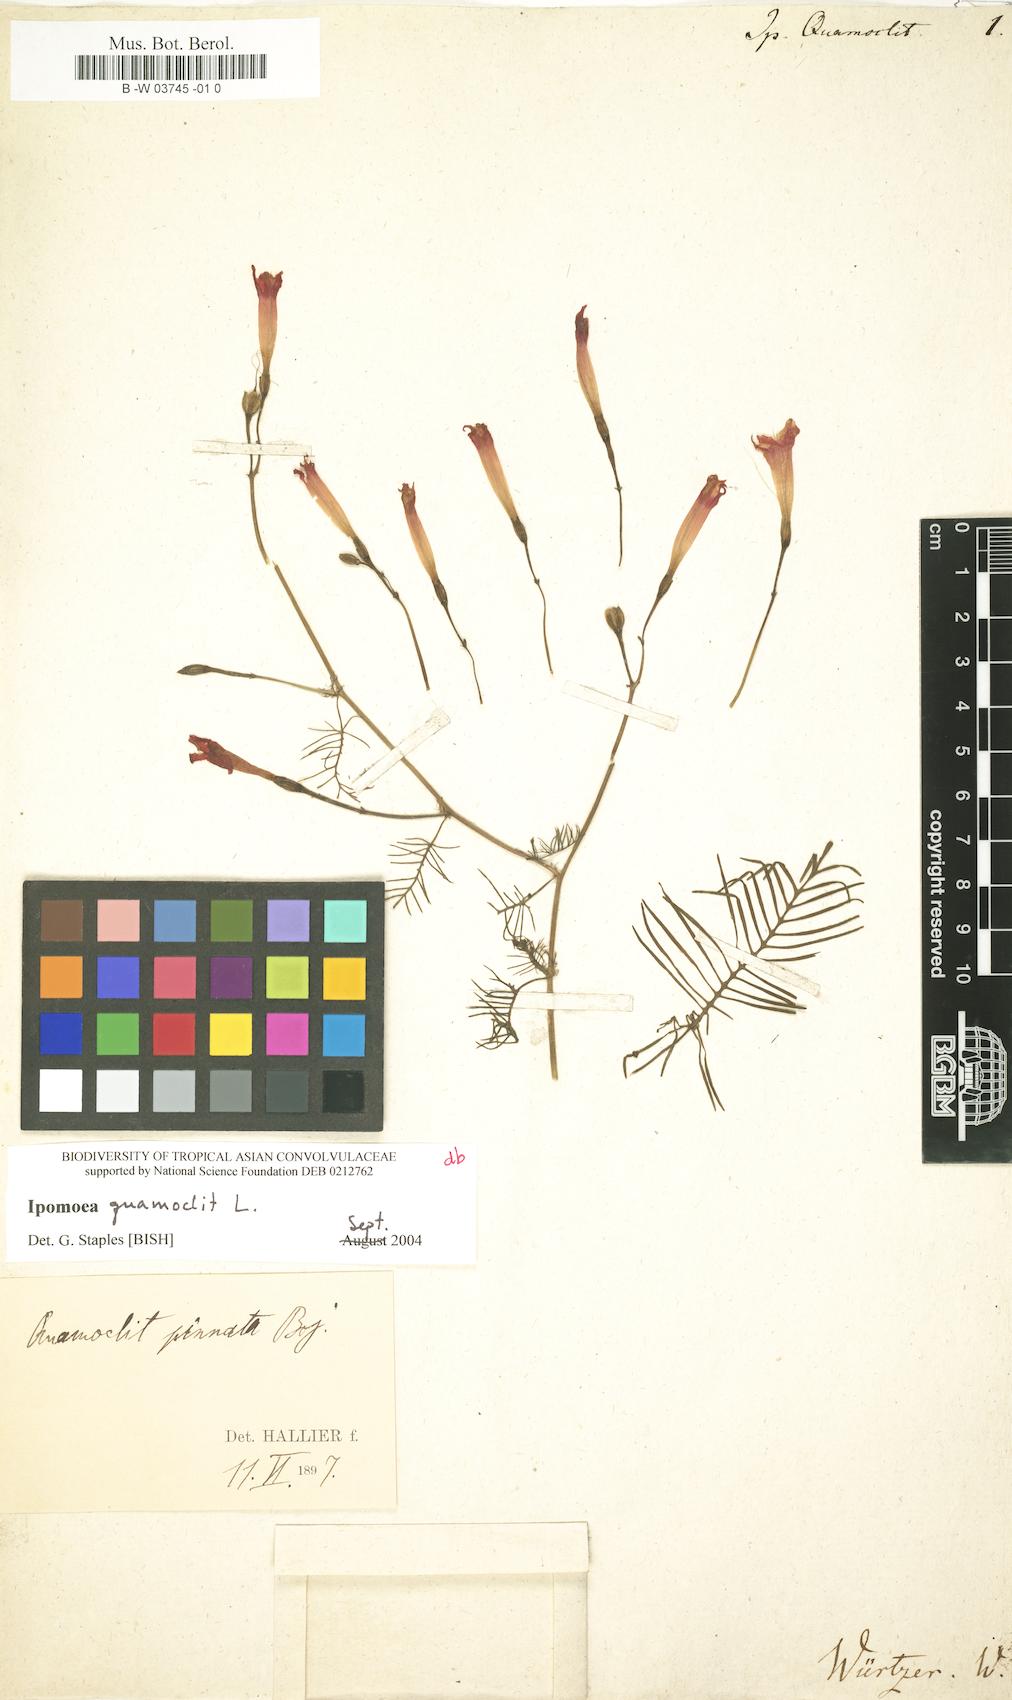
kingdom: Plantae
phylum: Tracheophyta
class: Magnoliopsida
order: Solanales
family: Convolvulaceae
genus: Ipomoea
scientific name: Ipomoea quamoclit
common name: Cypress vine
